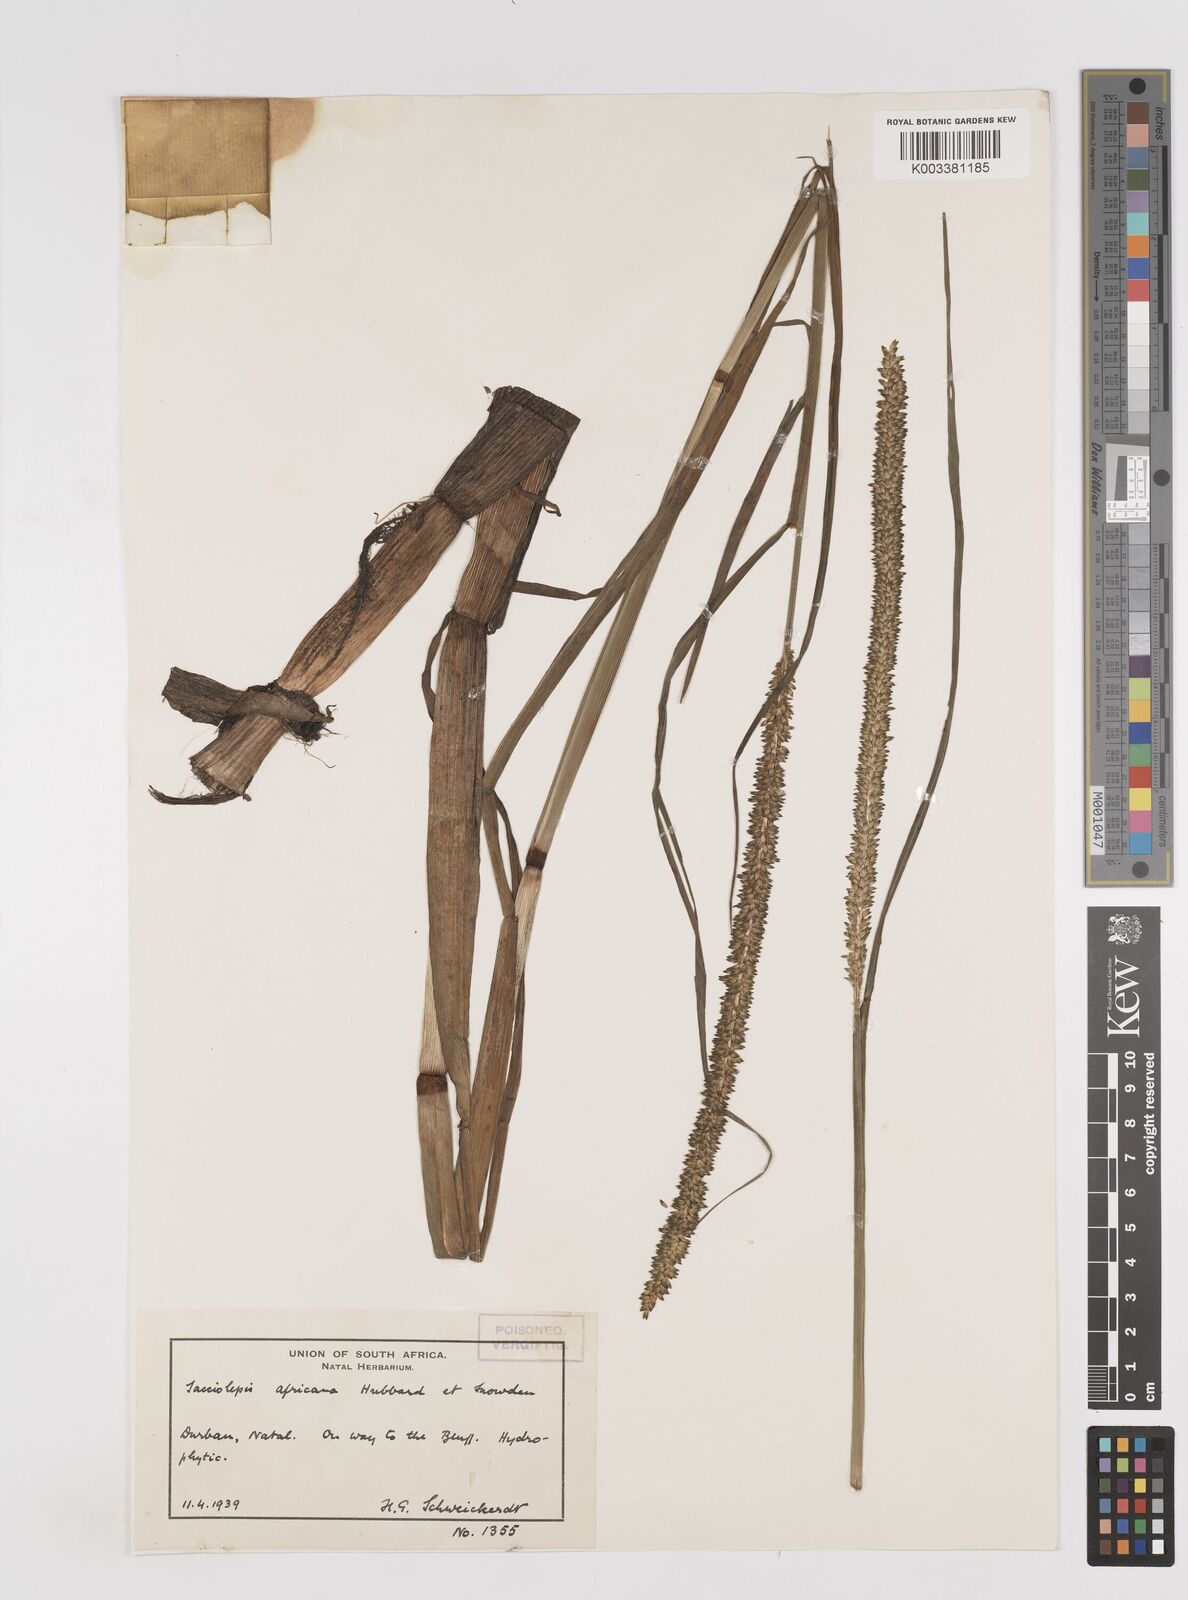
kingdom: Plantae
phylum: Tracheophyta
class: Liliopsida
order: Poales
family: Poaceae
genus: Sacciolepis
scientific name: Sacciolepis africana
